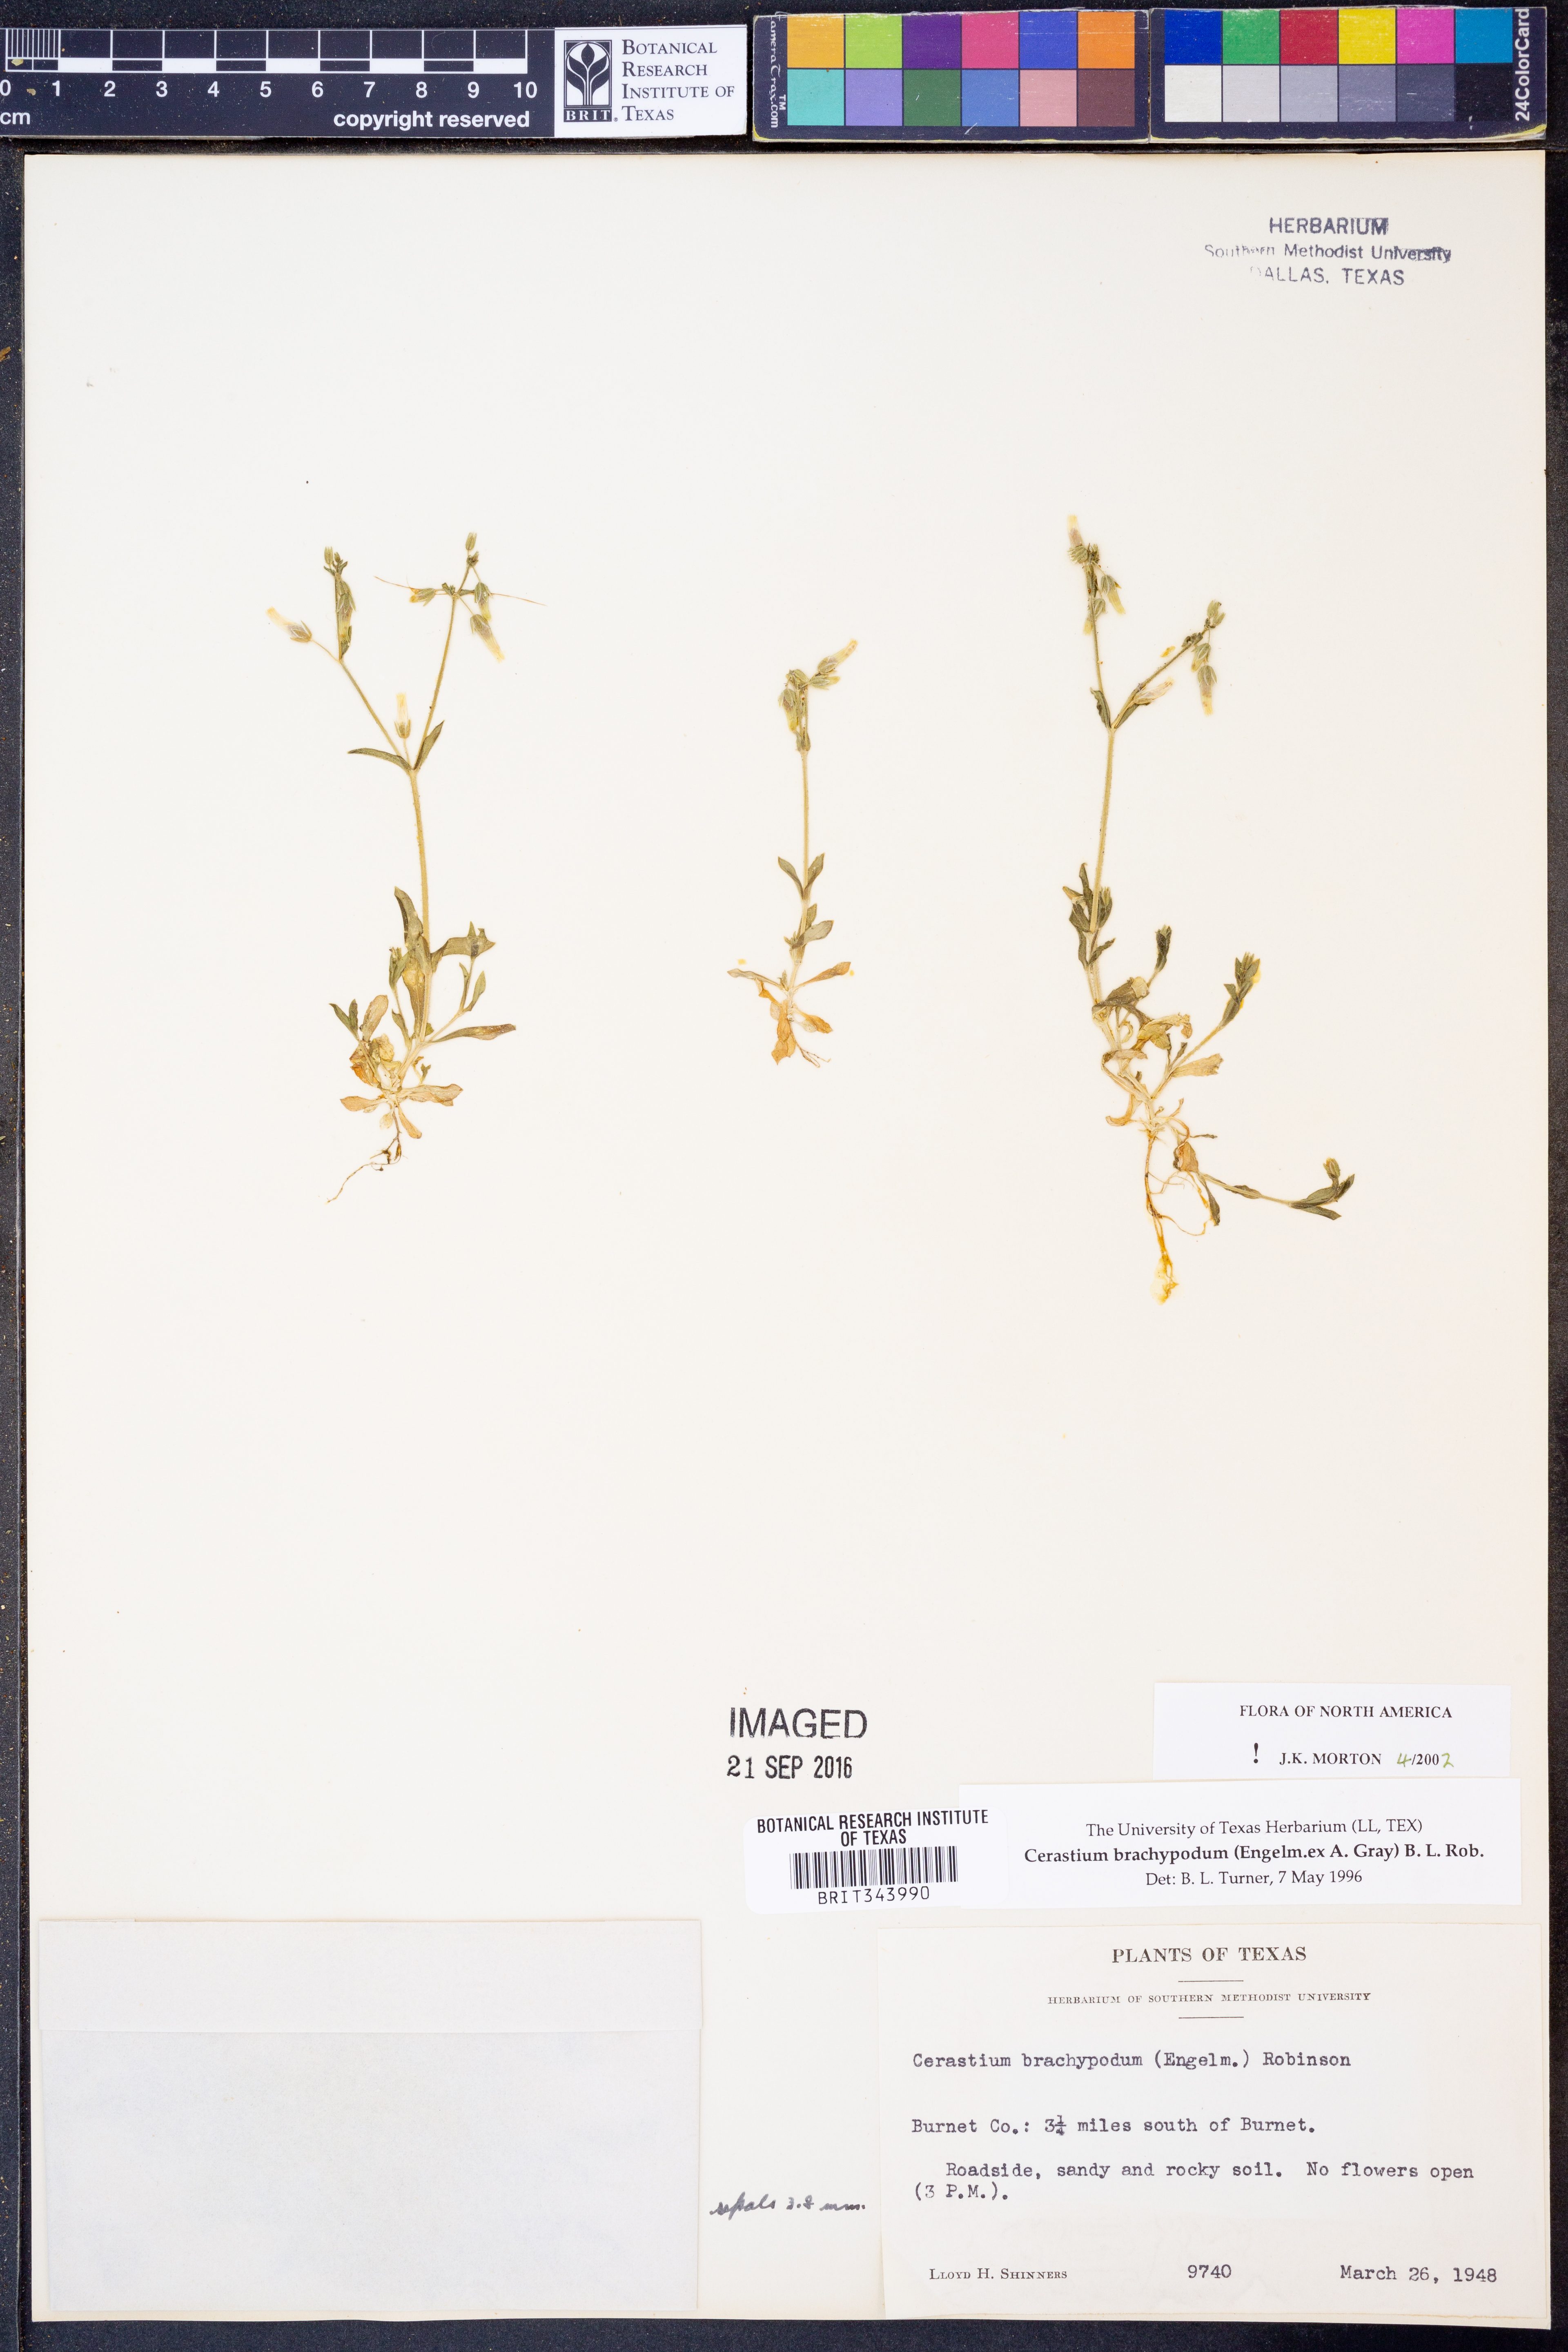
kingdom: Plantae
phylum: Tracheophyta
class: Magnoliopsida
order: Caryophyllales
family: Caryophyllaceae
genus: Cerastium
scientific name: Cerastium brachypodum
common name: Short-pedicelled nodding chickweed
